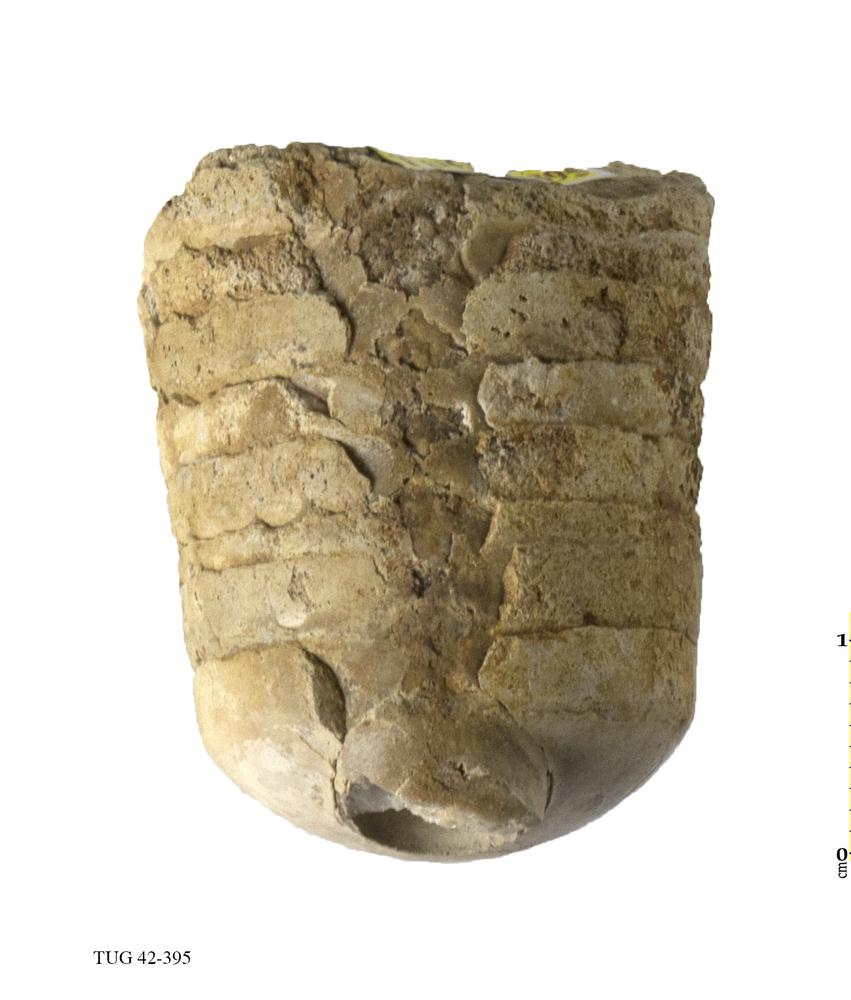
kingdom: Animalia
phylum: Mollusca
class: Cephalopoda
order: Orthocerida
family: Orthoceratidae
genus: Orthoceras
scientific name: Orthoceras
